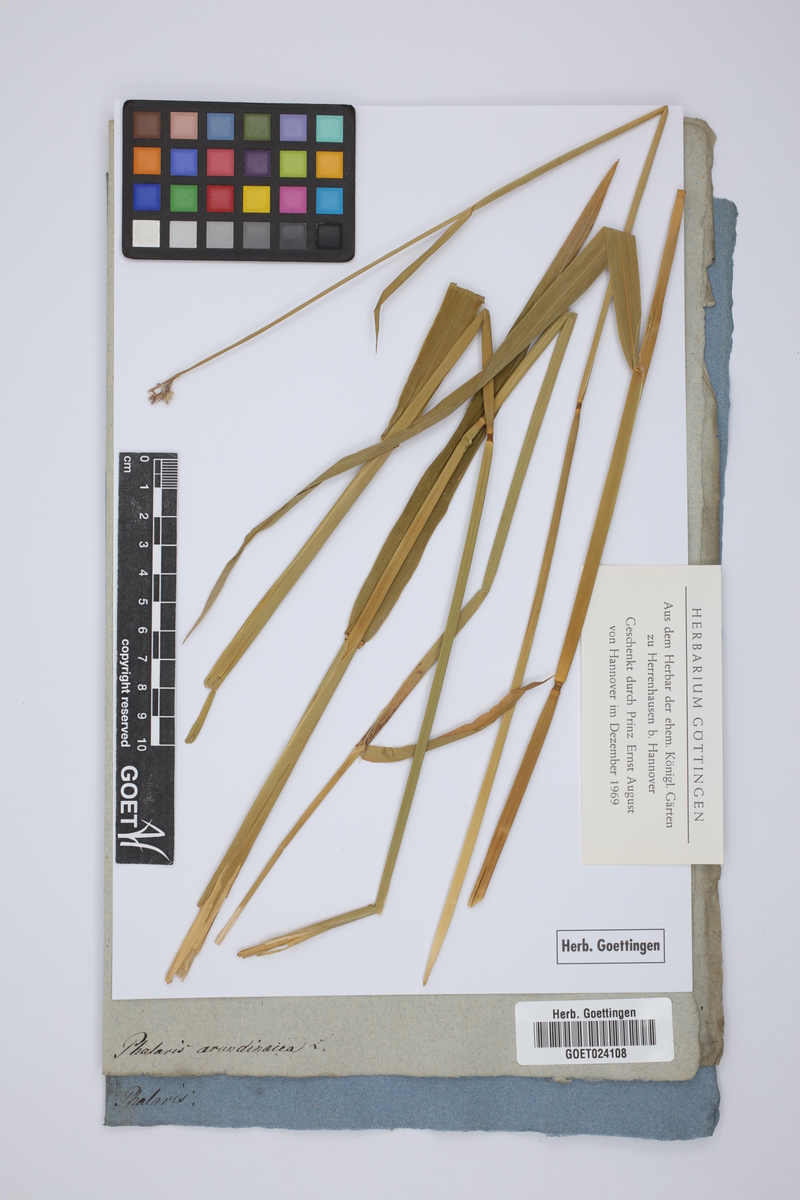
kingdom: Plantae
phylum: Tracheophyta
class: Liliopsida
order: Poales
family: Poaceae
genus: Phalaris
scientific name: Phalaris arundinacea
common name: Reed canary-grass
